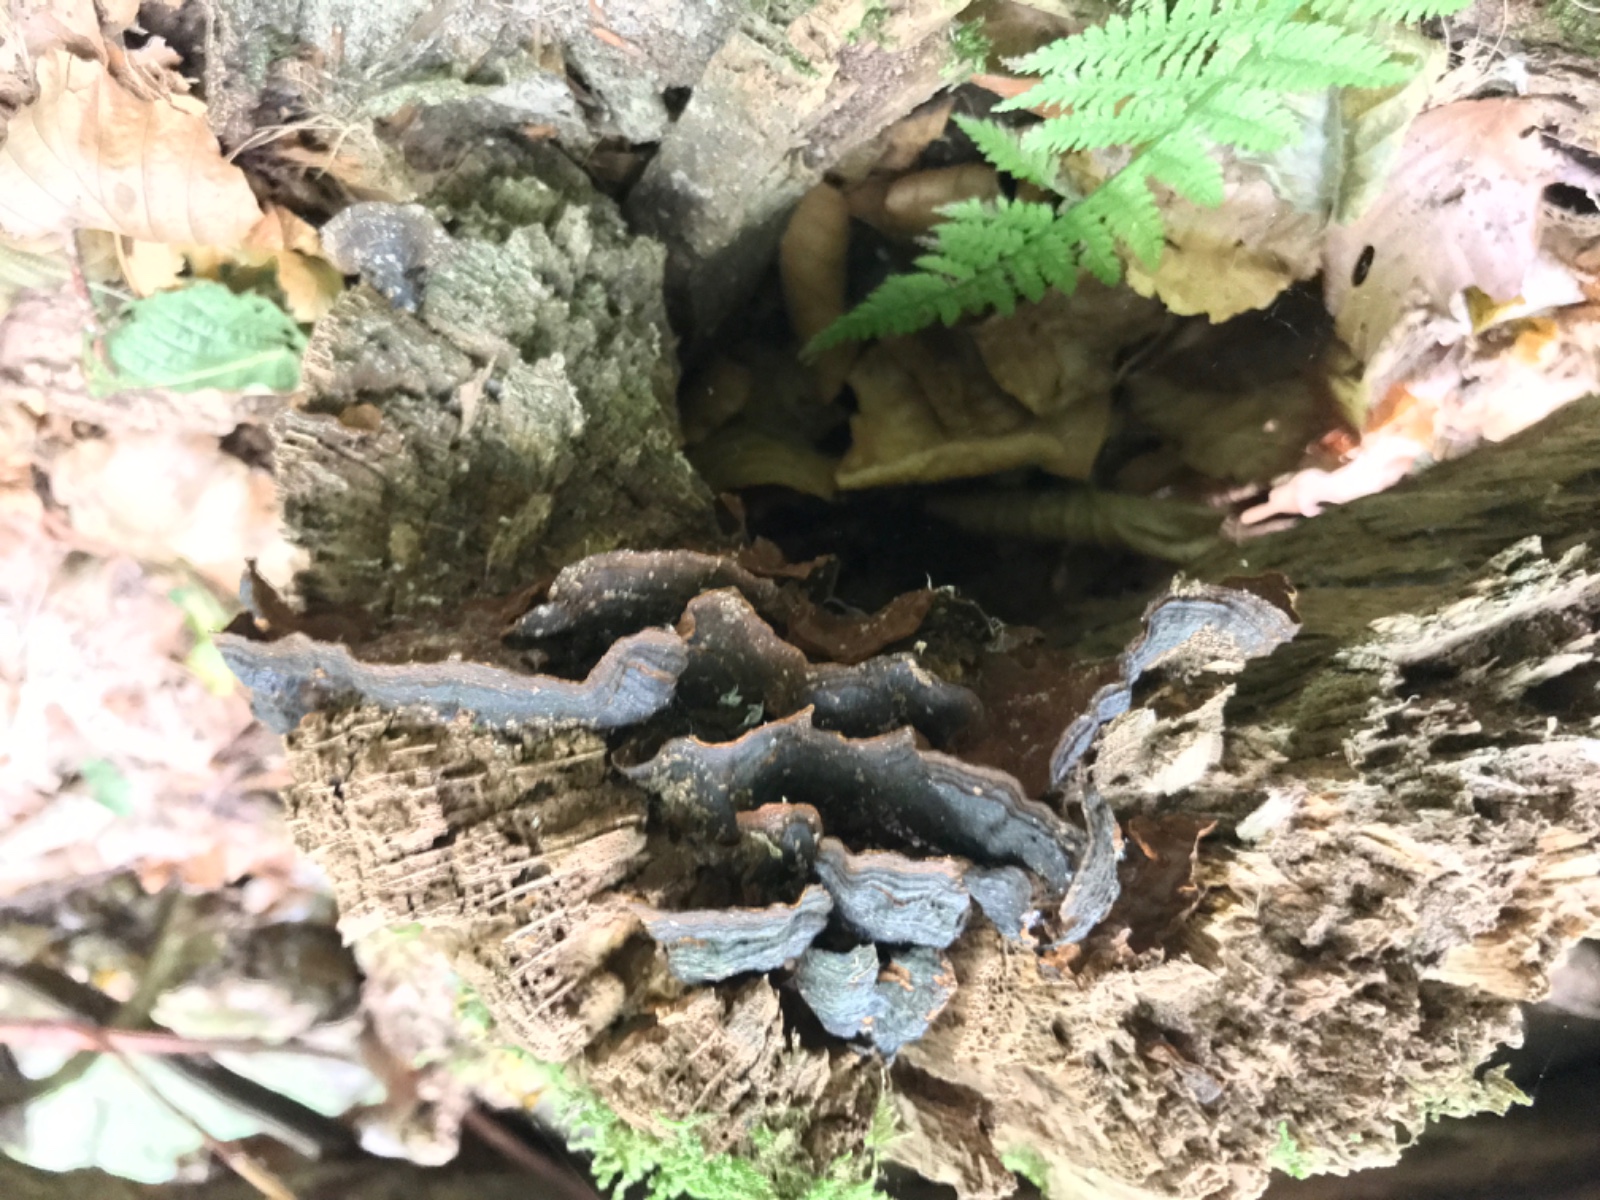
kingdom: Fungi
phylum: Basidiomycota
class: Agaricomycetes
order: Hymenochaetales
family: Hymenochaetaceae
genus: Hymenochaete
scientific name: Hymenochaete rubiginosa
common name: stiv ruslædersvamp
